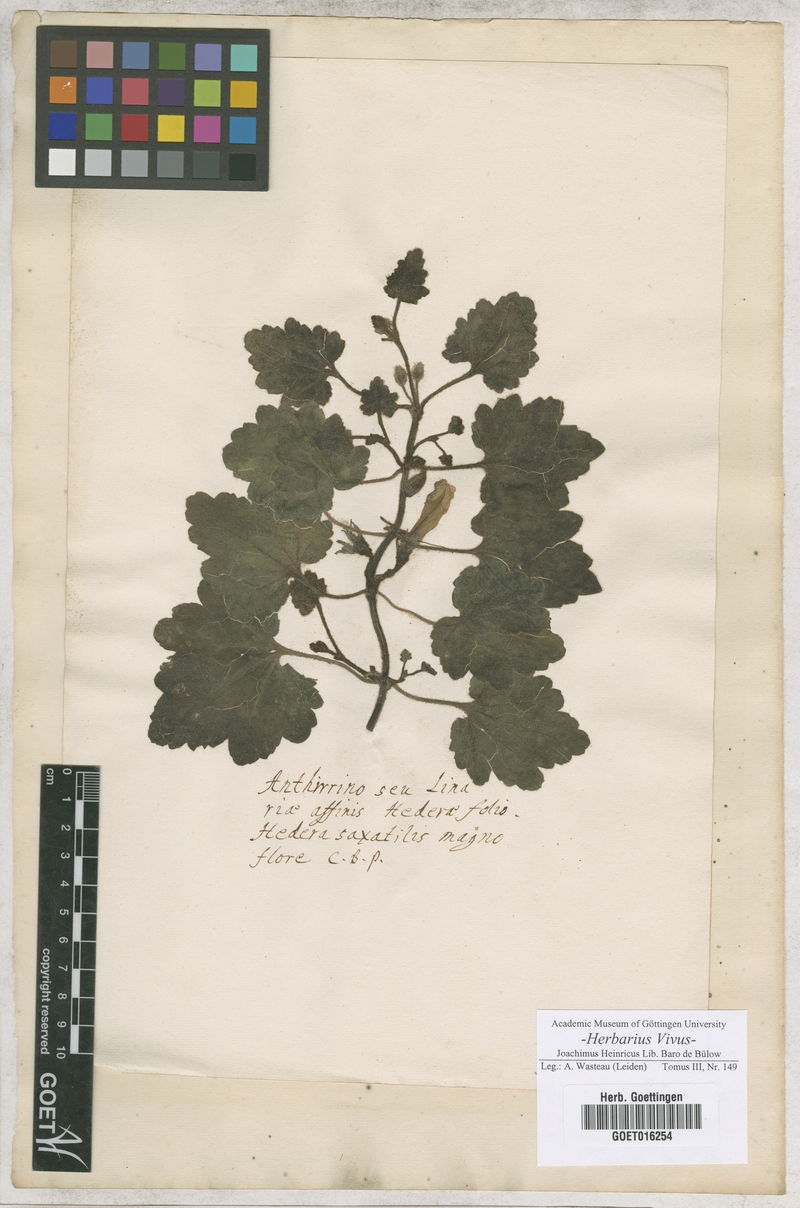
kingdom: Plantae
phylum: Tracheophyta
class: Magnoliopsida
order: Lamiales
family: Plantaginaceae
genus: Asarina
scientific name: Asarina procumbens
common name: Trailing snapdragon
